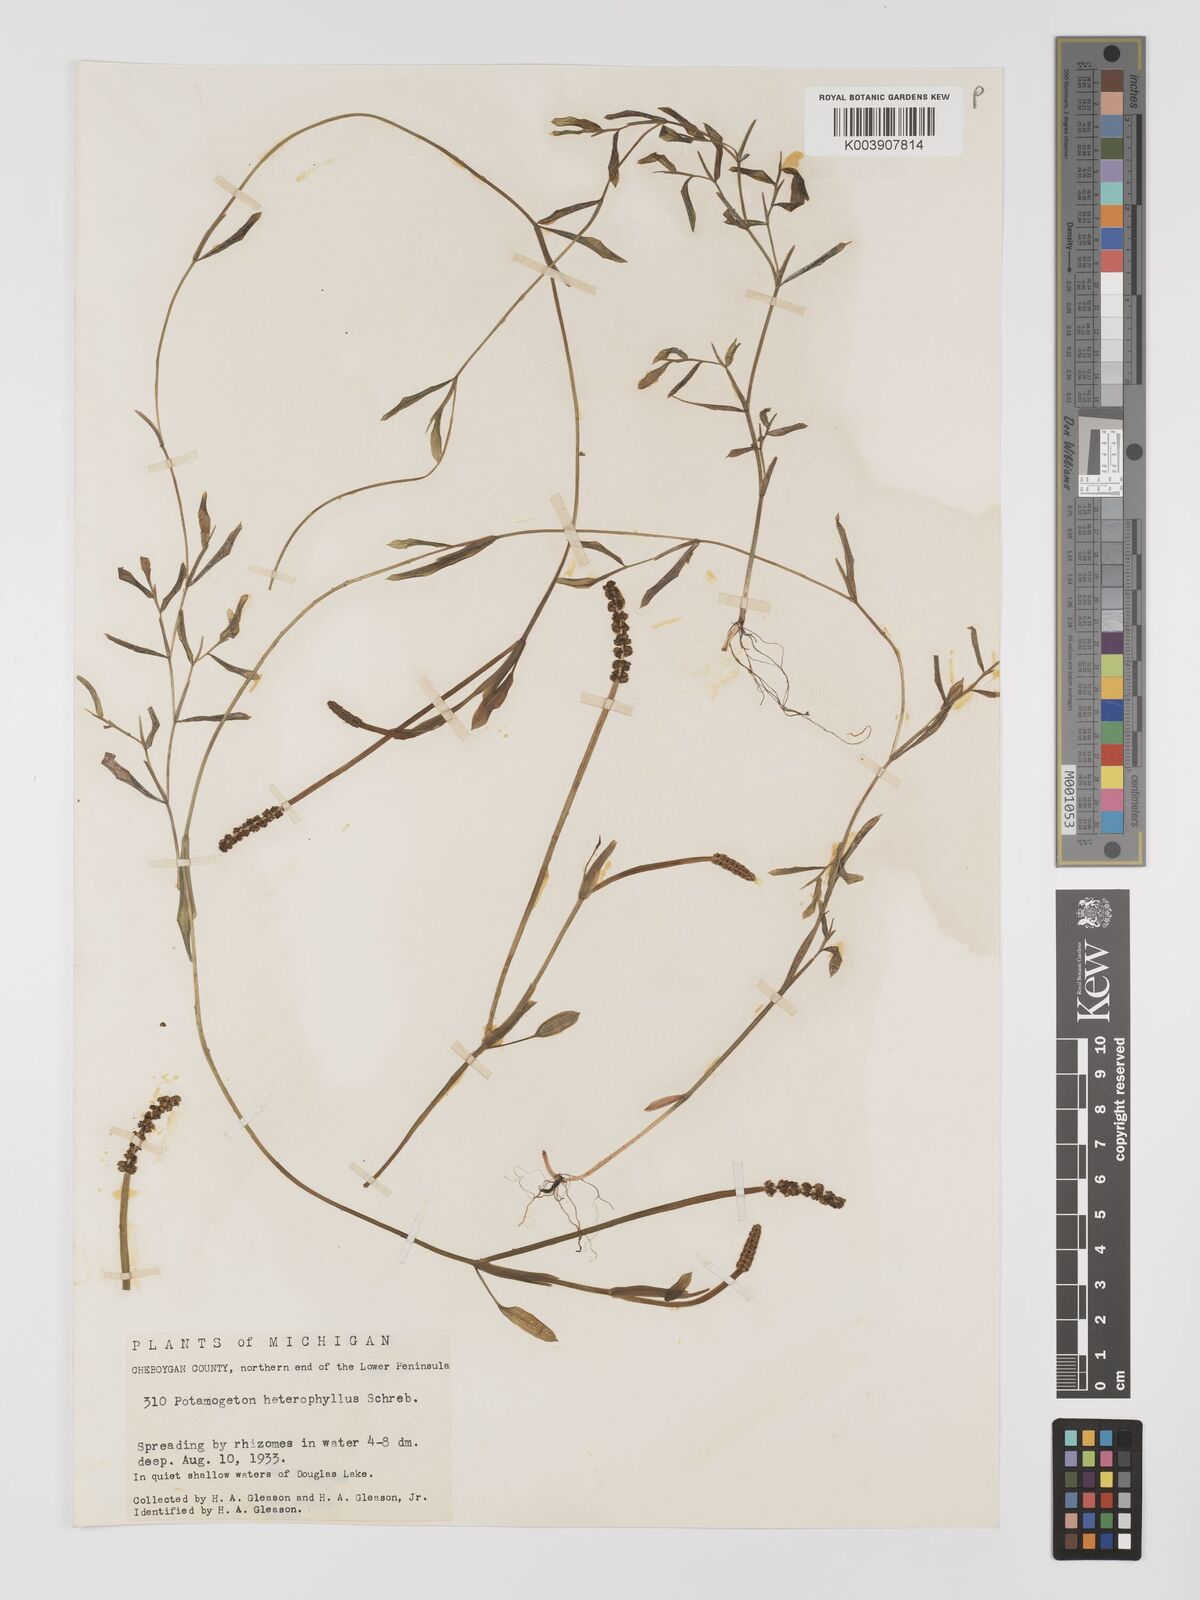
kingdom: Plantae
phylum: Tracheophyta
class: Liliopsida
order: Alismatales
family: Potamogetonaceae
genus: Potamogeton
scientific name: Potamogeton gramineus
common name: Various-leaved pondweed
